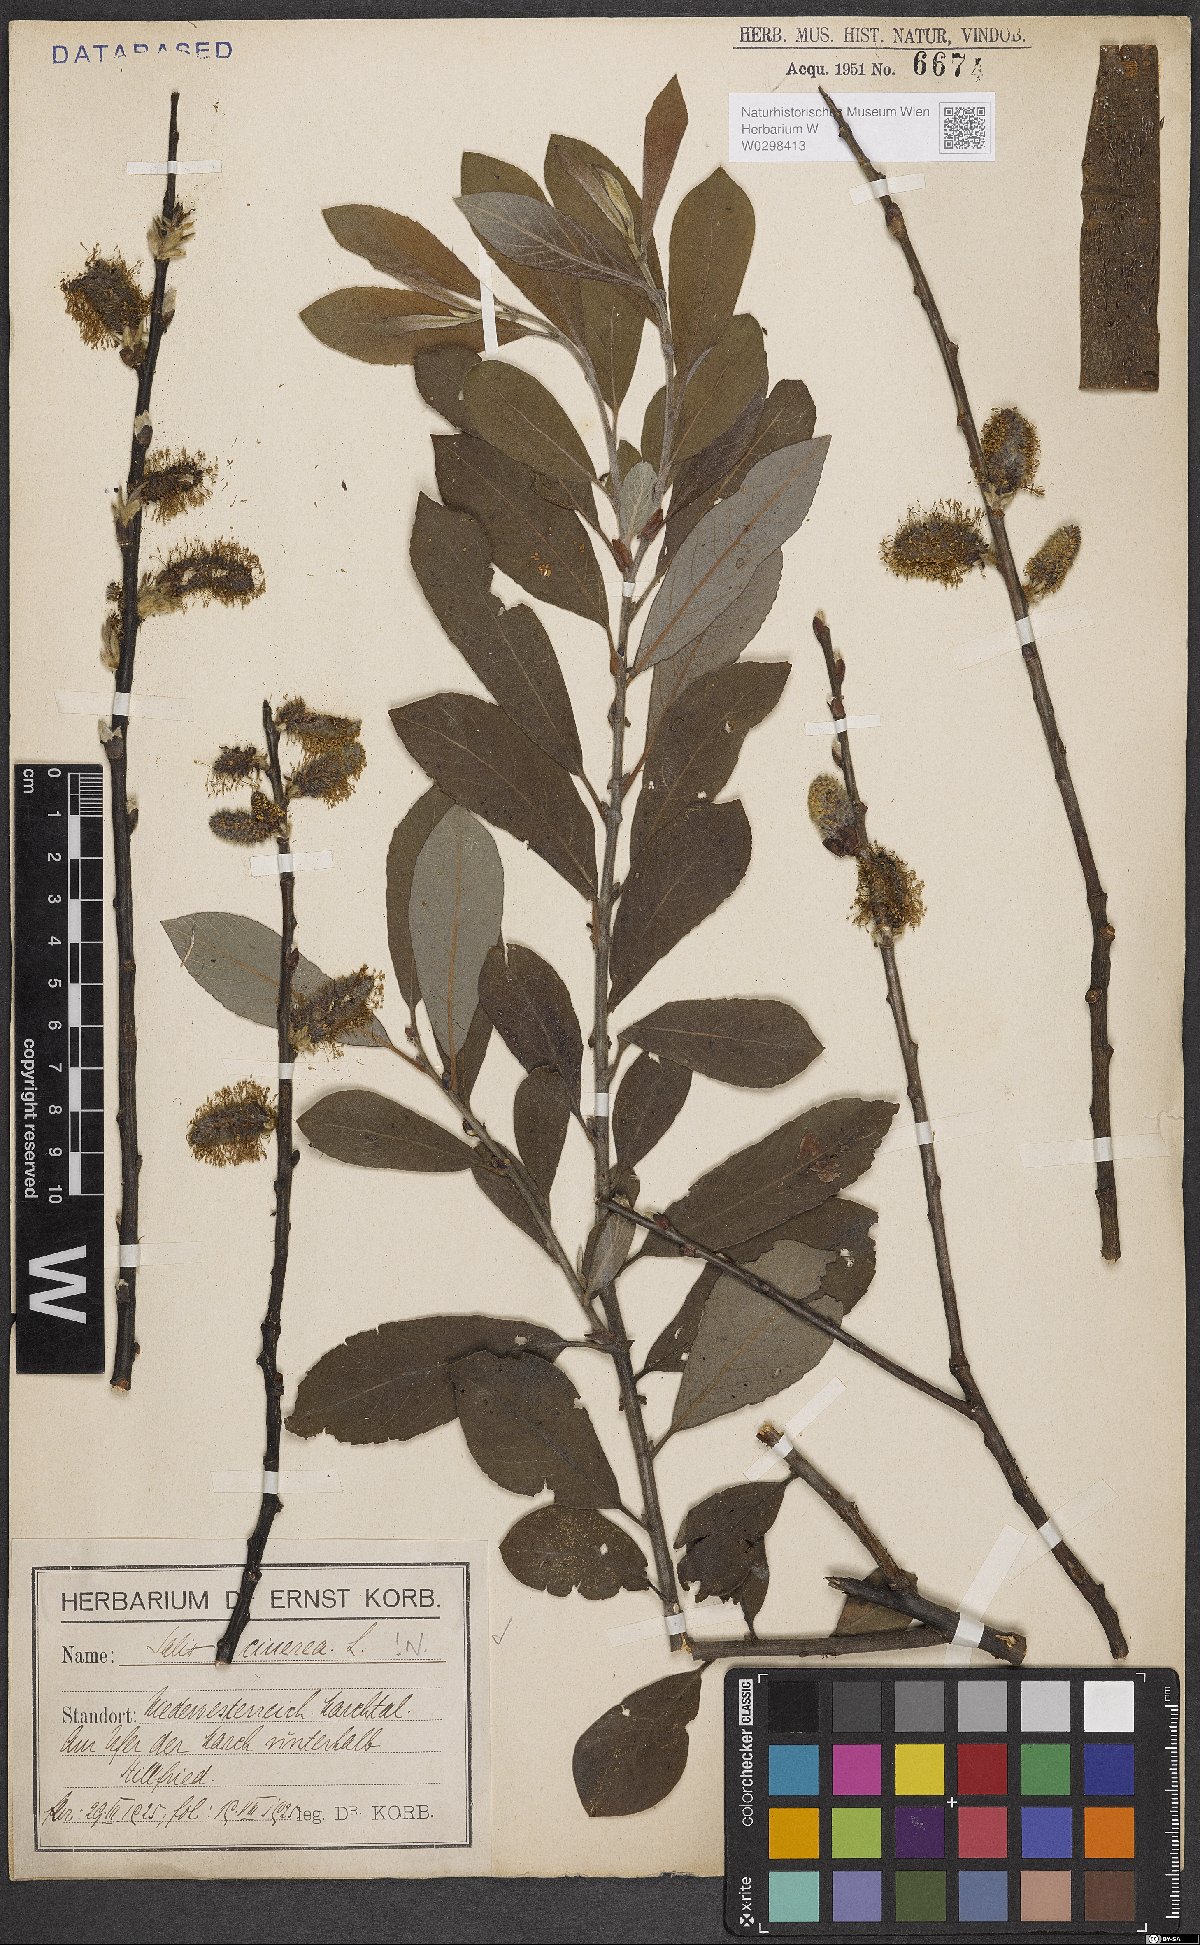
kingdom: Plantae
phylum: Tracheophyta
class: Magnoliopsida
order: Malpighiales
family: Salicaceae
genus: Salix
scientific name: Salix cinerea
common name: Common sallow
